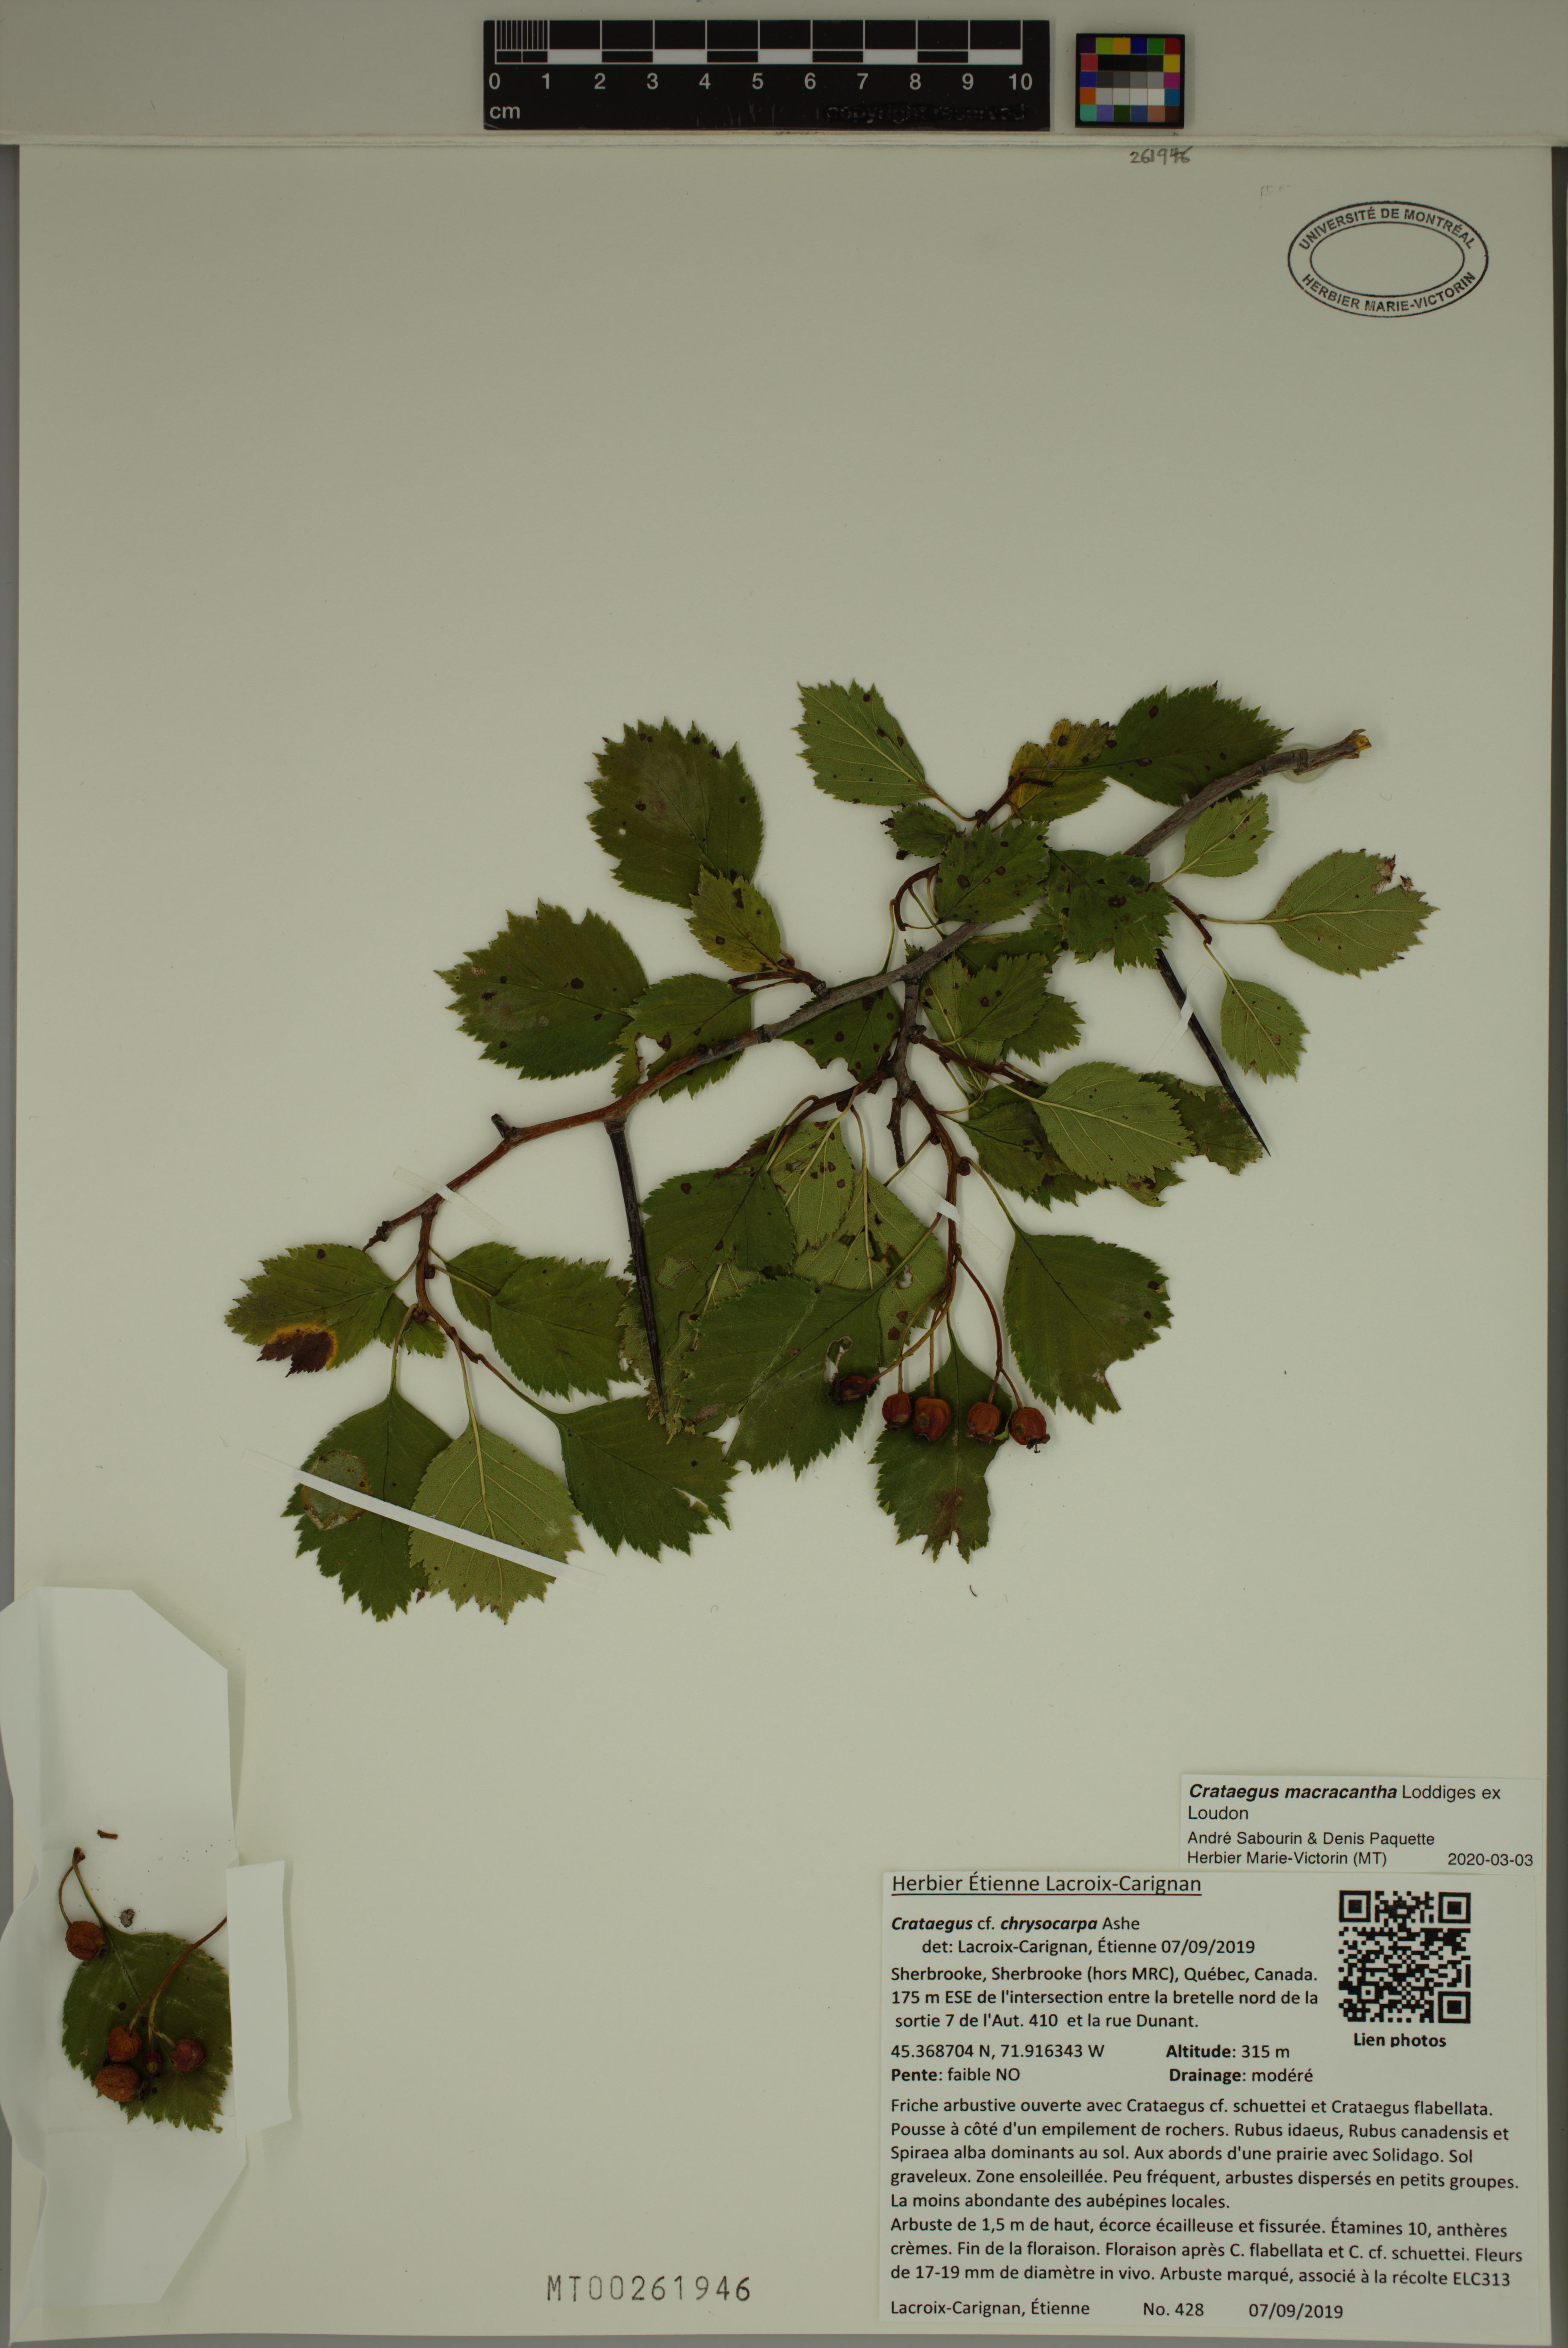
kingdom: Plantae
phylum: Tracheophyta
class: Magnoliopsida
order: Rosales
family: Rosaceae
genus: Crataegus
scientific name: Crataegus macracantha
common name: Large-thorn hawthorn
